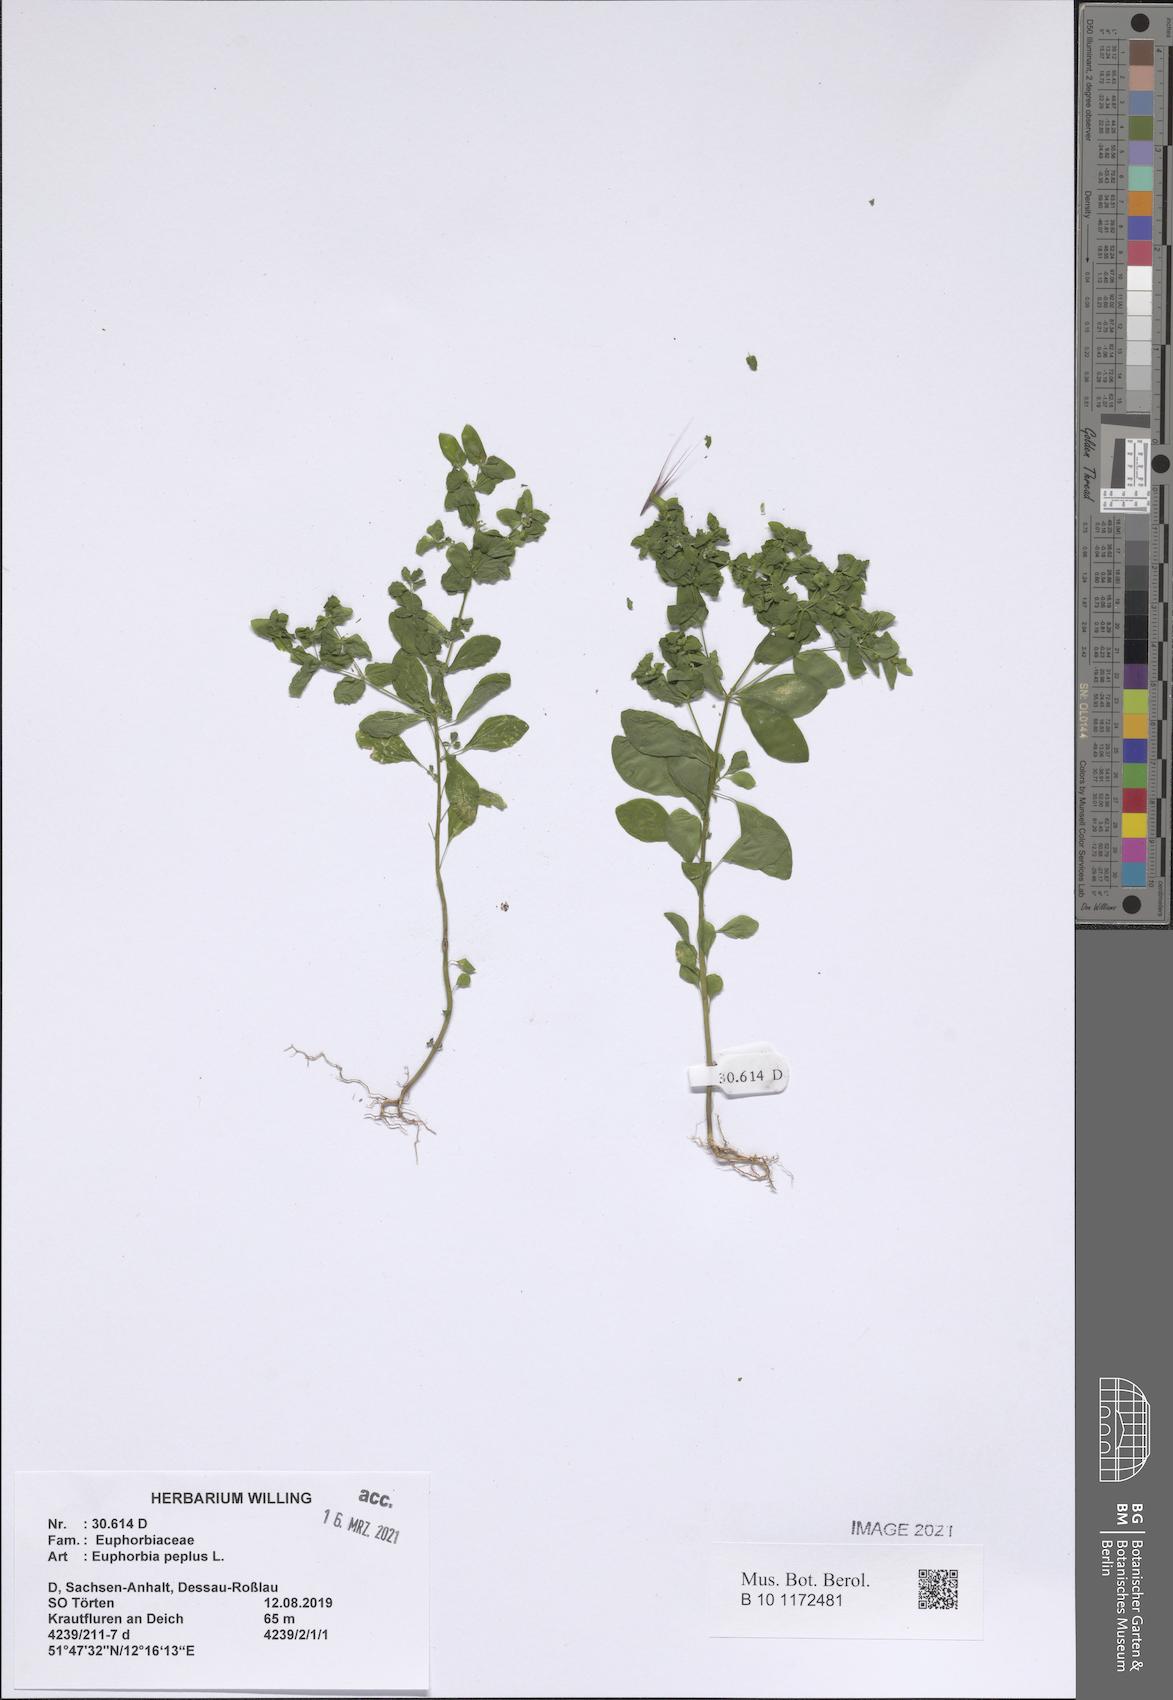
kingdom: Plantae
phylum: Tracheophyta
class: Magnoliopsida
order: Malpighiales
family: Euphorbiaceae
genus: Euphorbia
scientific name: Euphorbia peplus
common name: Petty spurge
